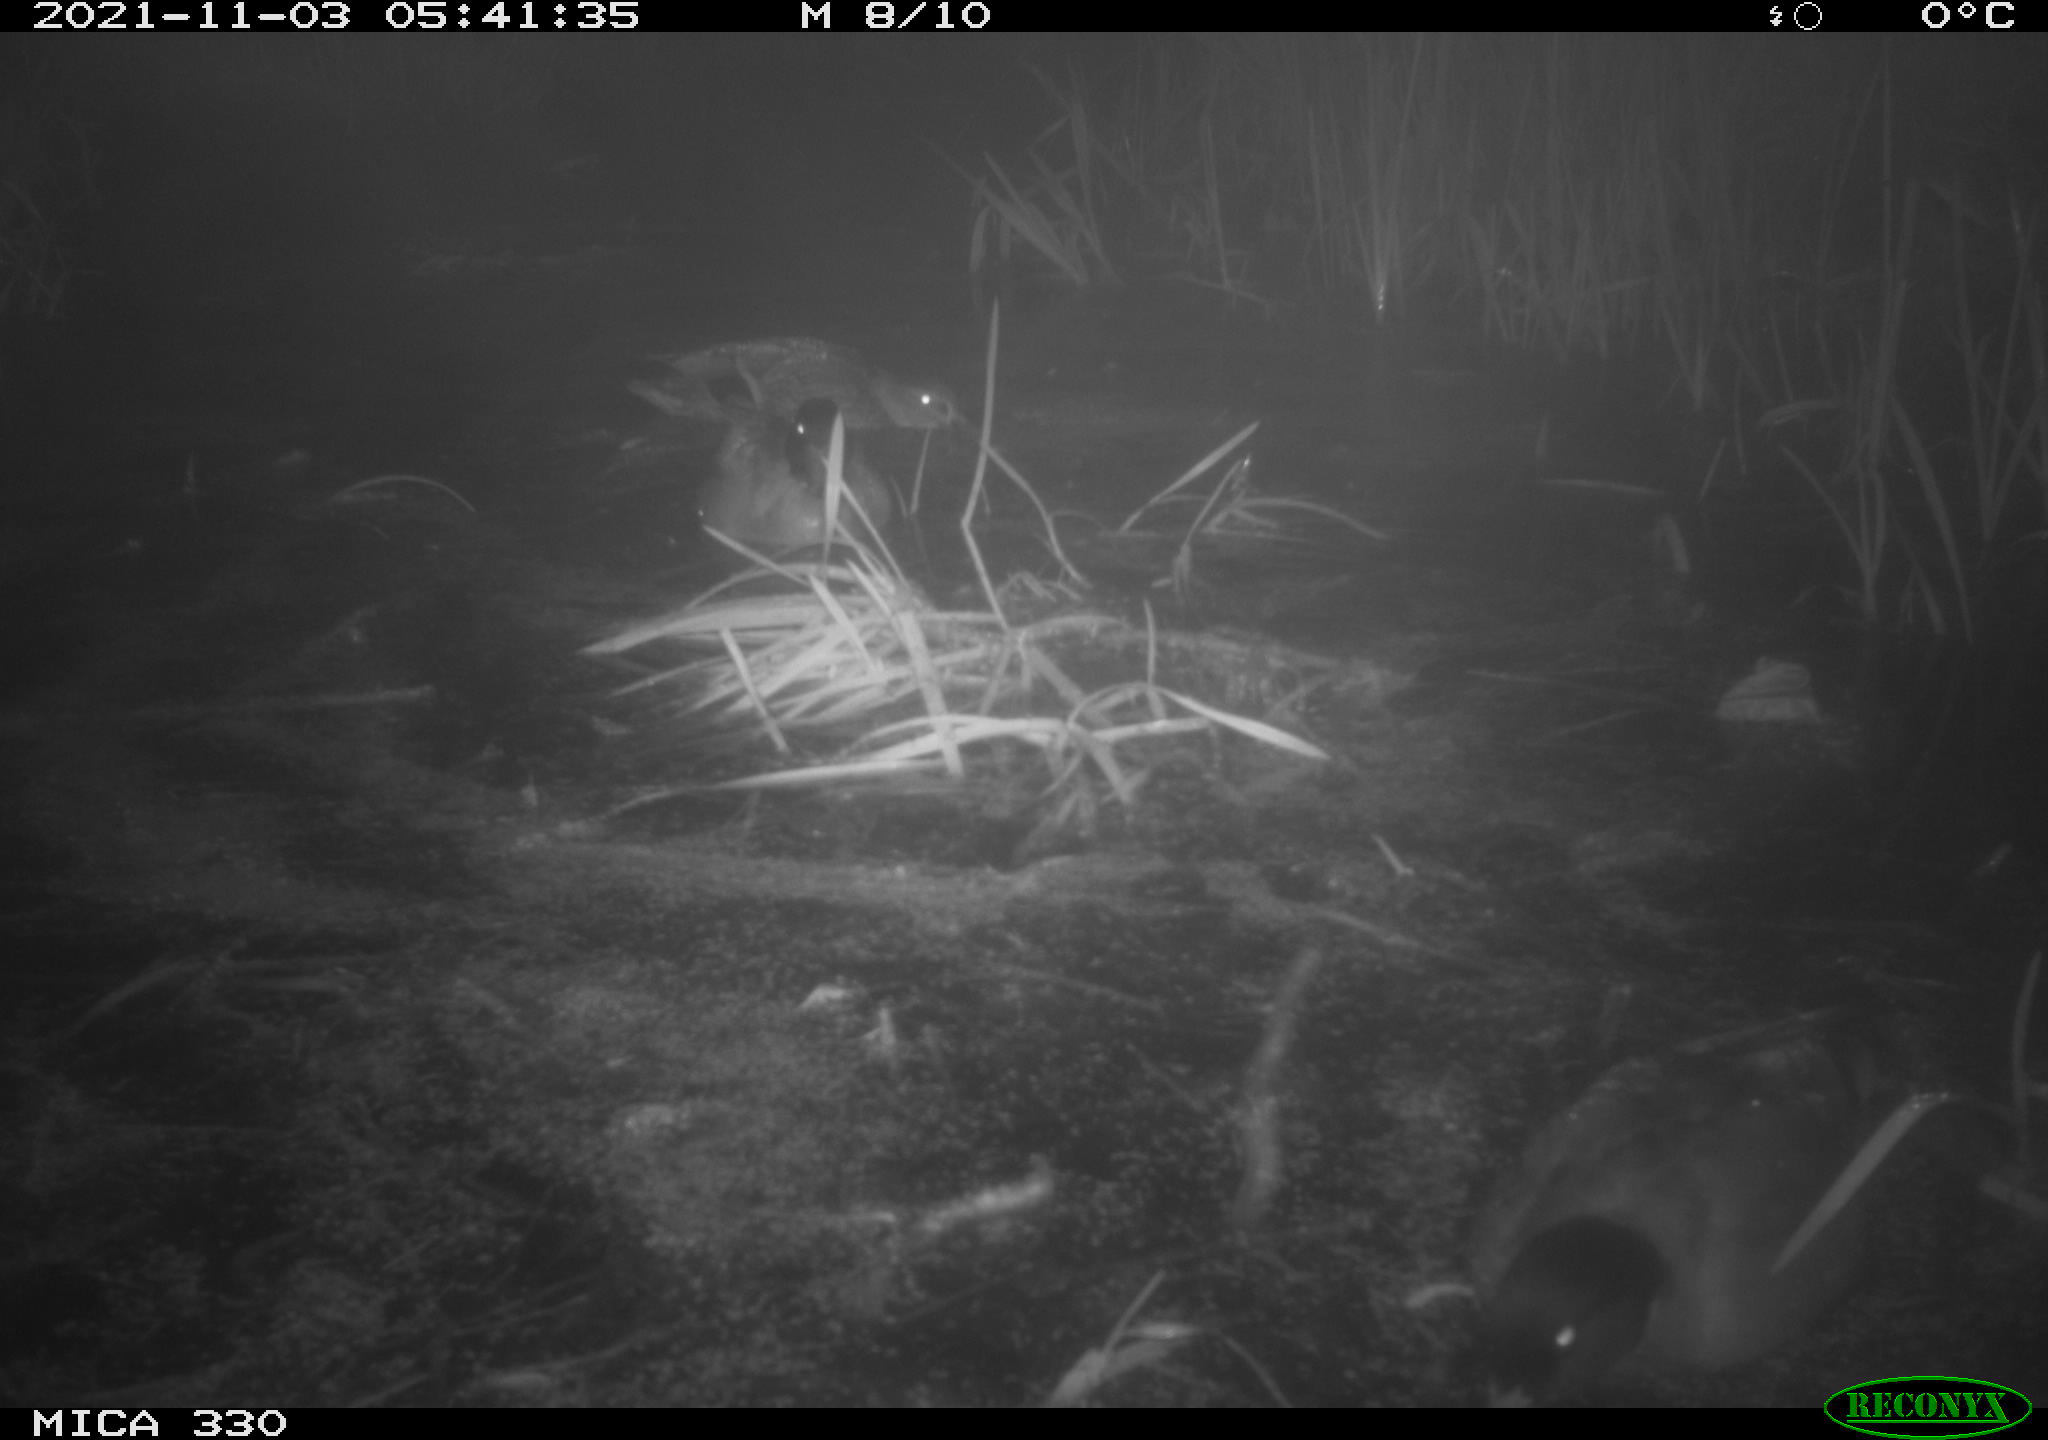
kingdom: Animalia
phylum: Chordata
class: Aves
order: Anseriformes
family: Anatidae
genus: Anas
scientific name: Anas platyrhynchos
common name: Mallard
